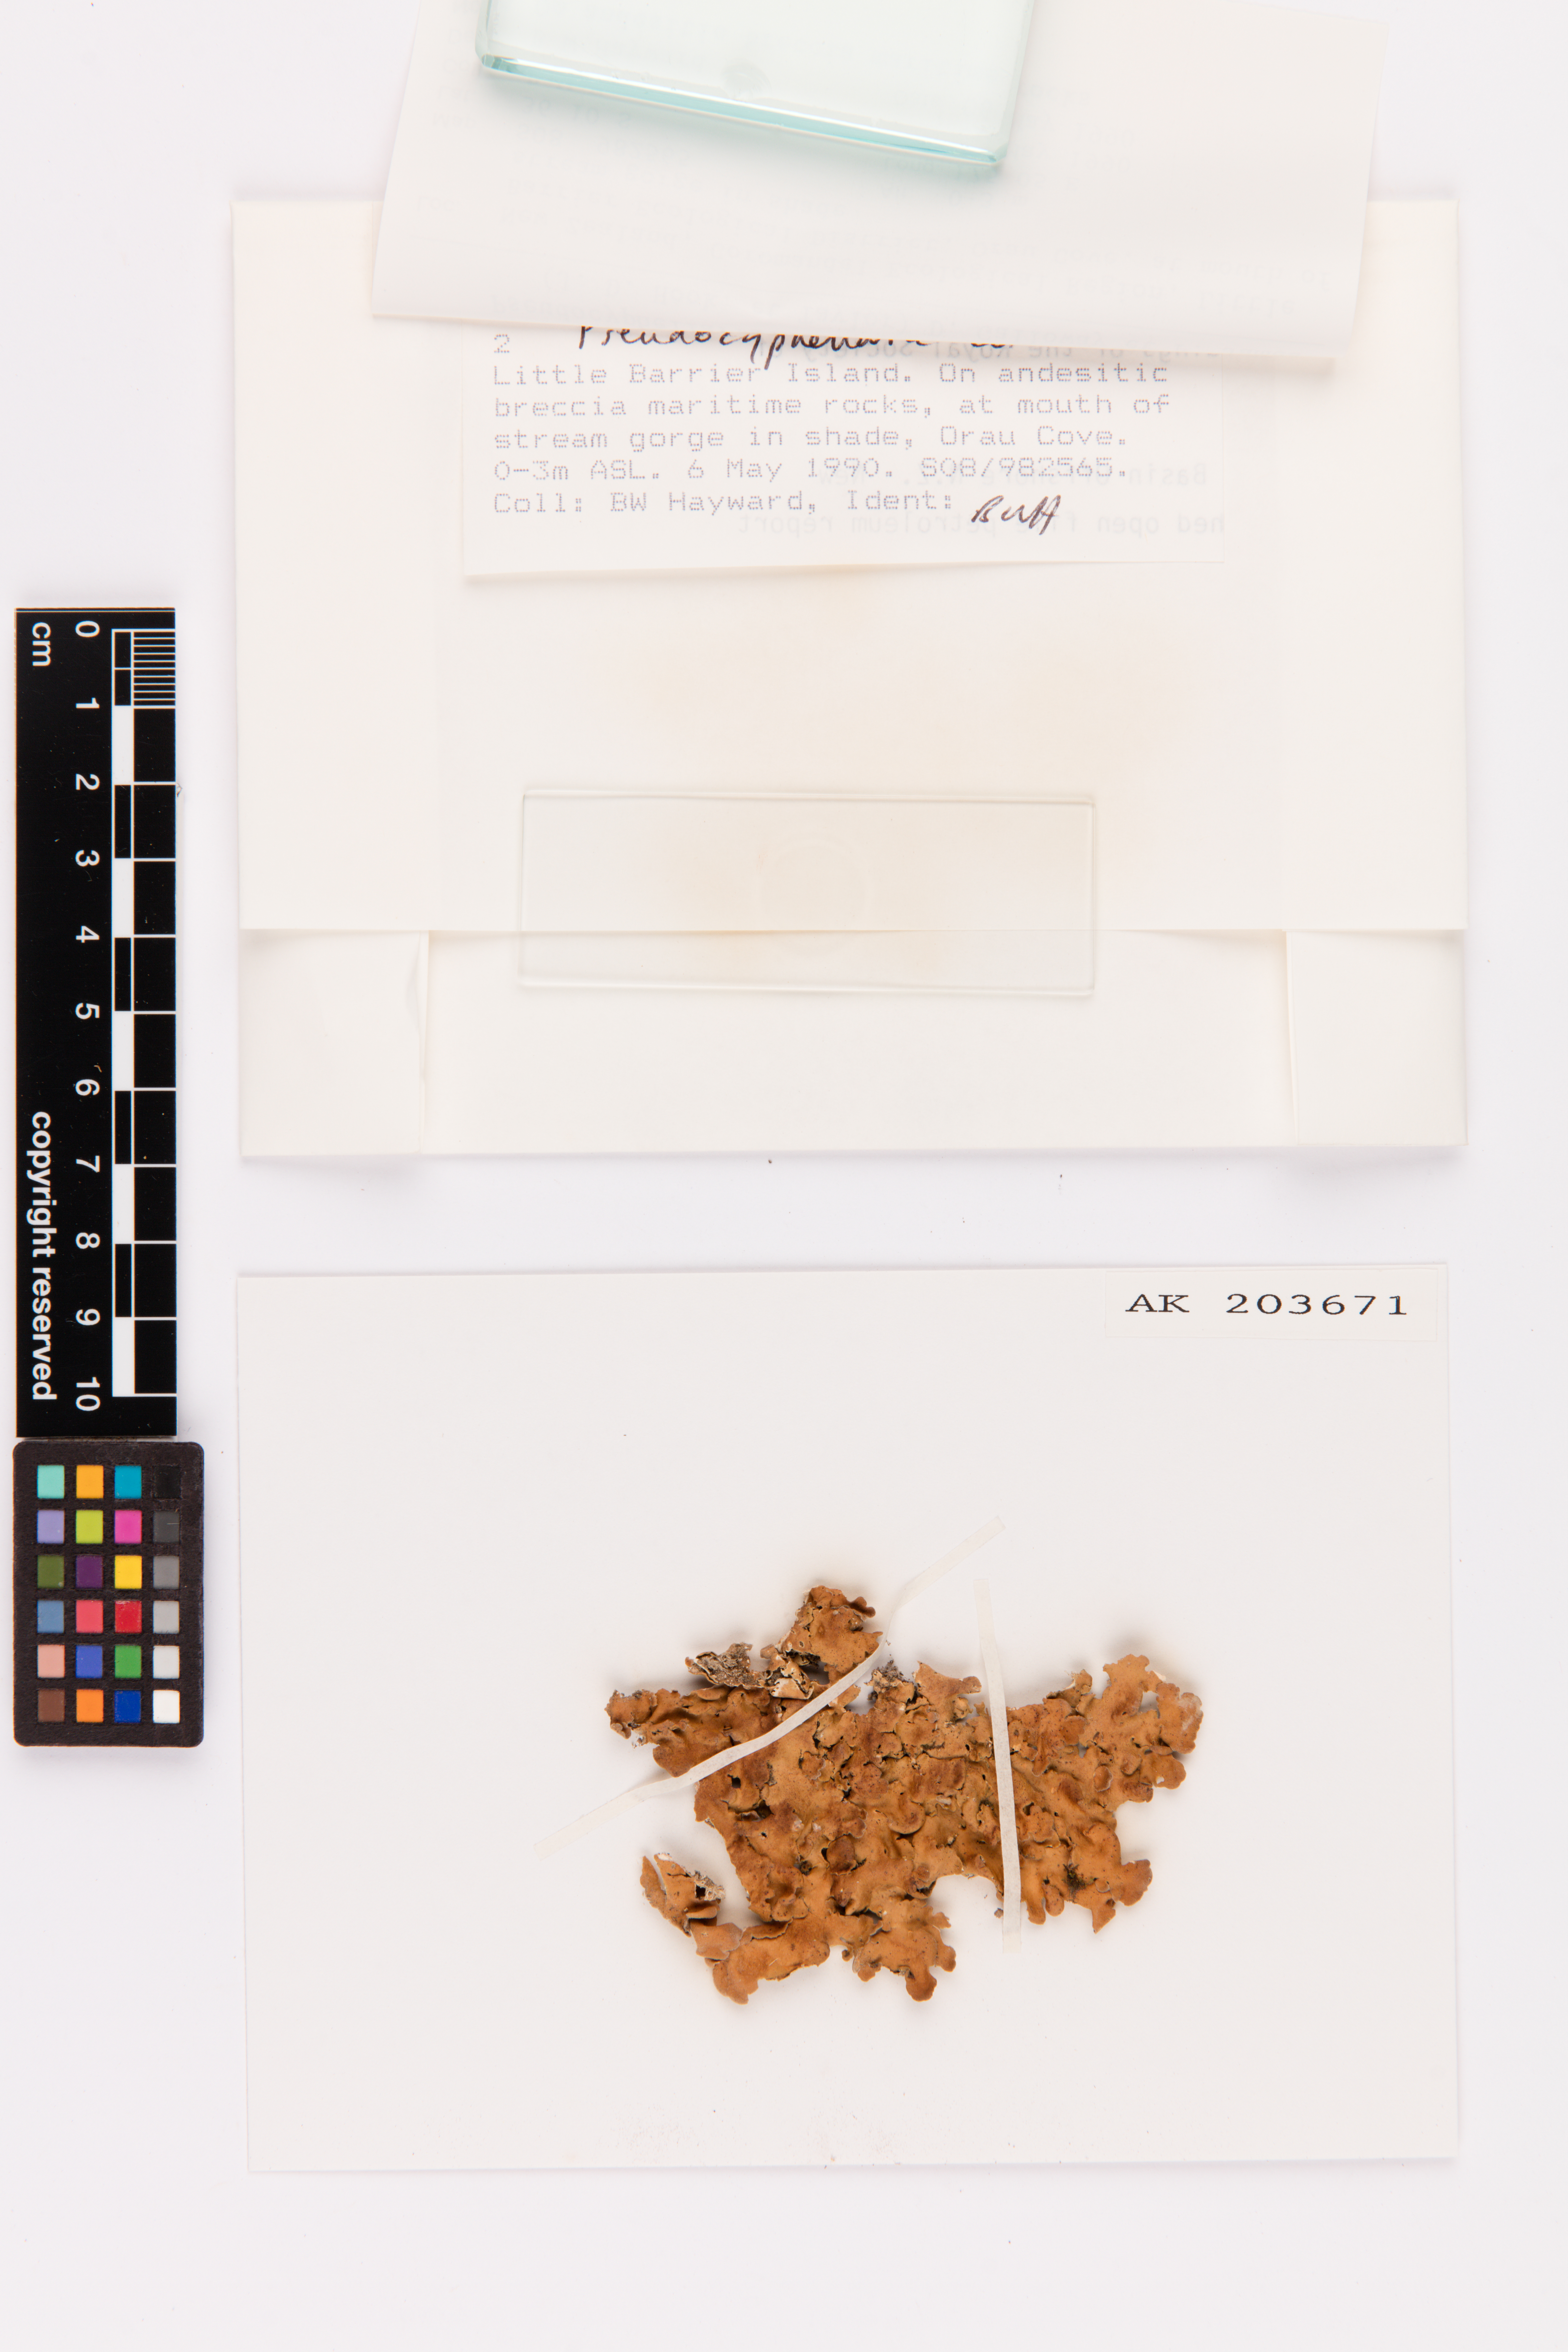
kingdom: Fungi
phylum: Ascomycota
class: Lecanoromycetes
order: Peltigerales
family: Lobariaceae
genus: Pseudocyphellaria
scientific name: Pseudocyphellaria coriacea
